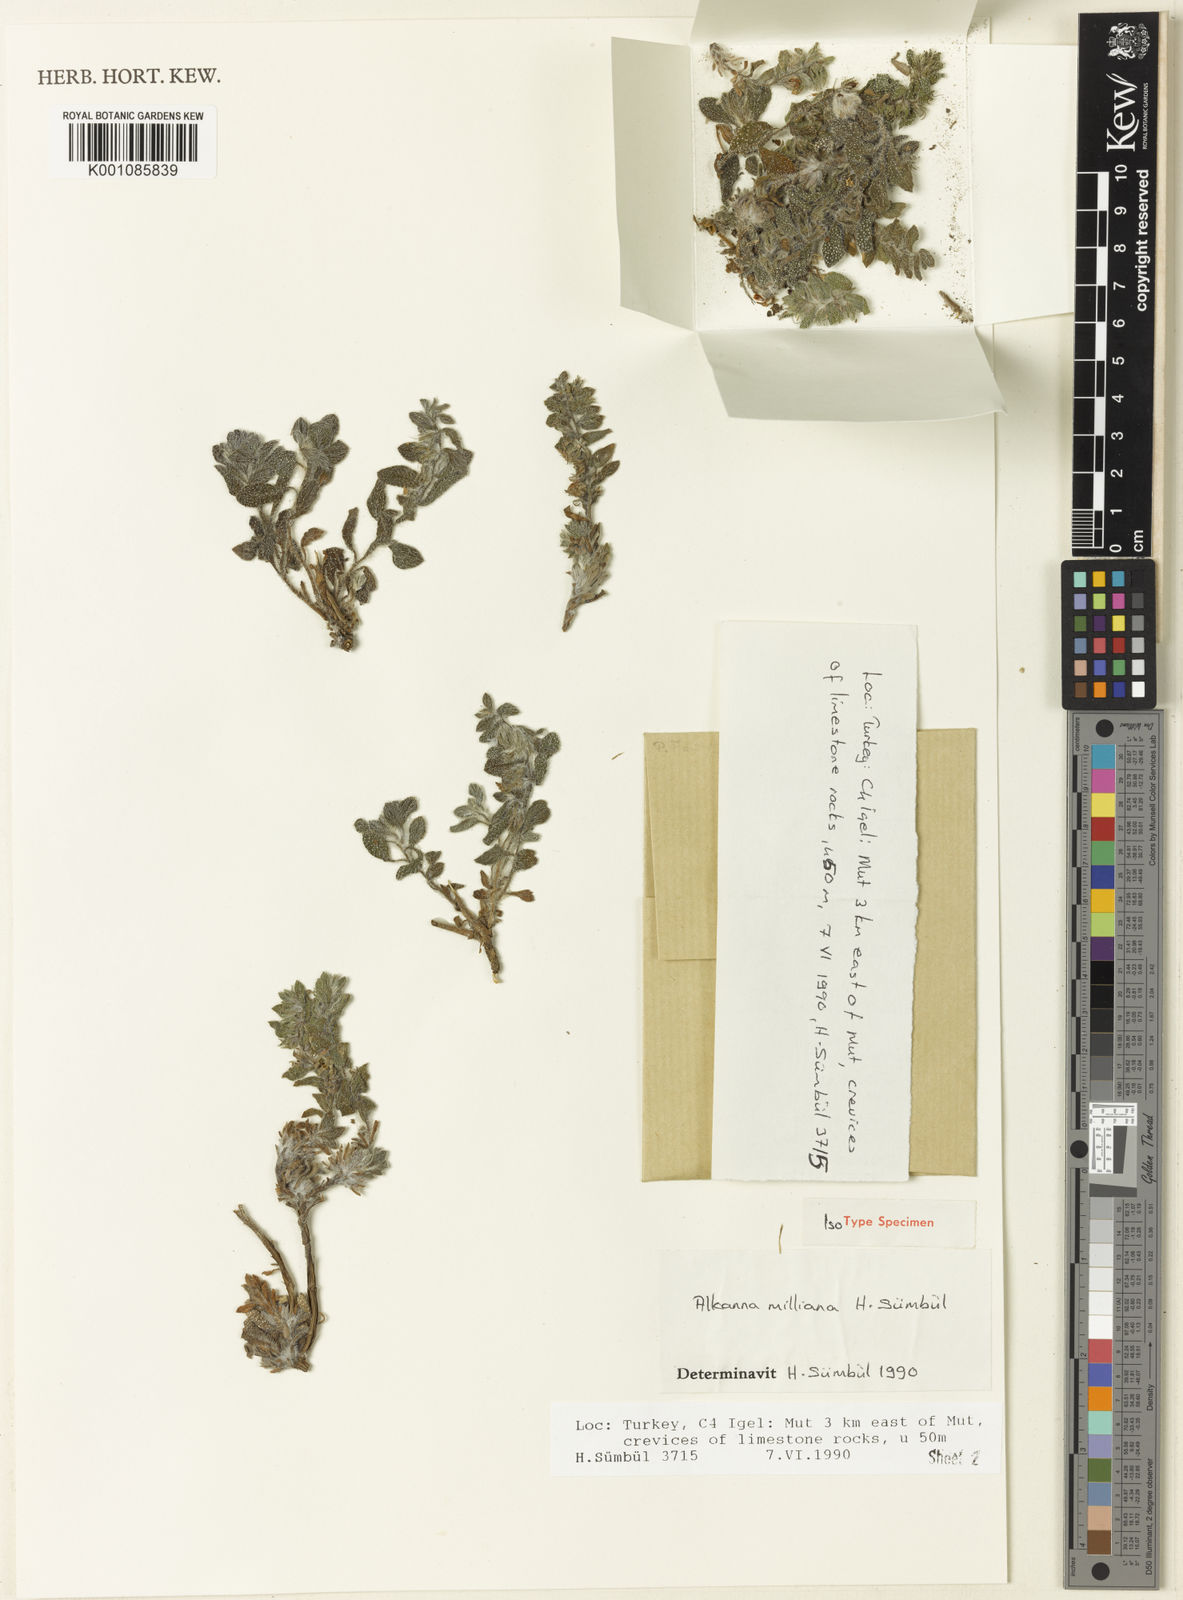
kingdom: Plantae
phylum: Tracheophyta
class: Magnoliopsida
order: Boraginales
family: Boraginaceae
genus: Alkanna
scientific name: Alkanna
